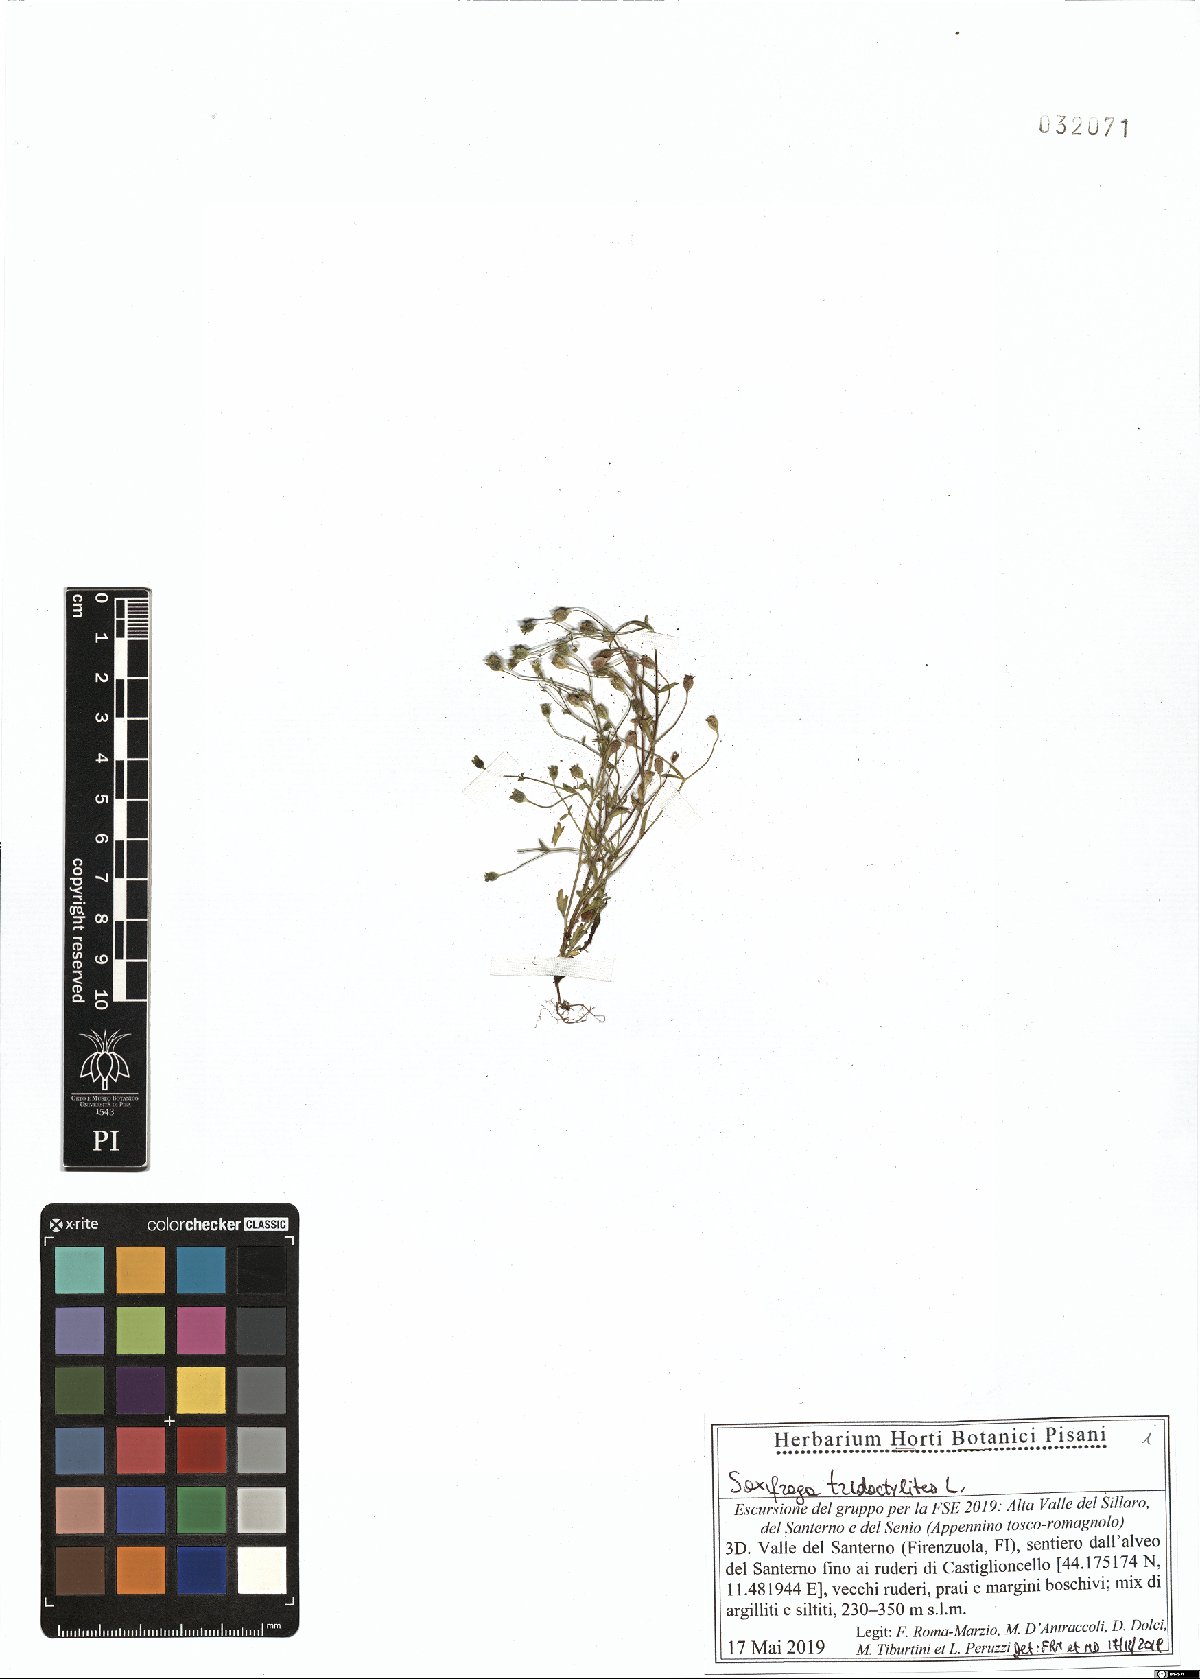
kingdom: Plantae
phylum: Tracheophyta
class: Magnoliopsida
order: Saxifragales
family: Saxifragaceae
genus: Saxifraga
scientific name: Saxifraga tridactylites
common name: Rue-leaved saxifrage
